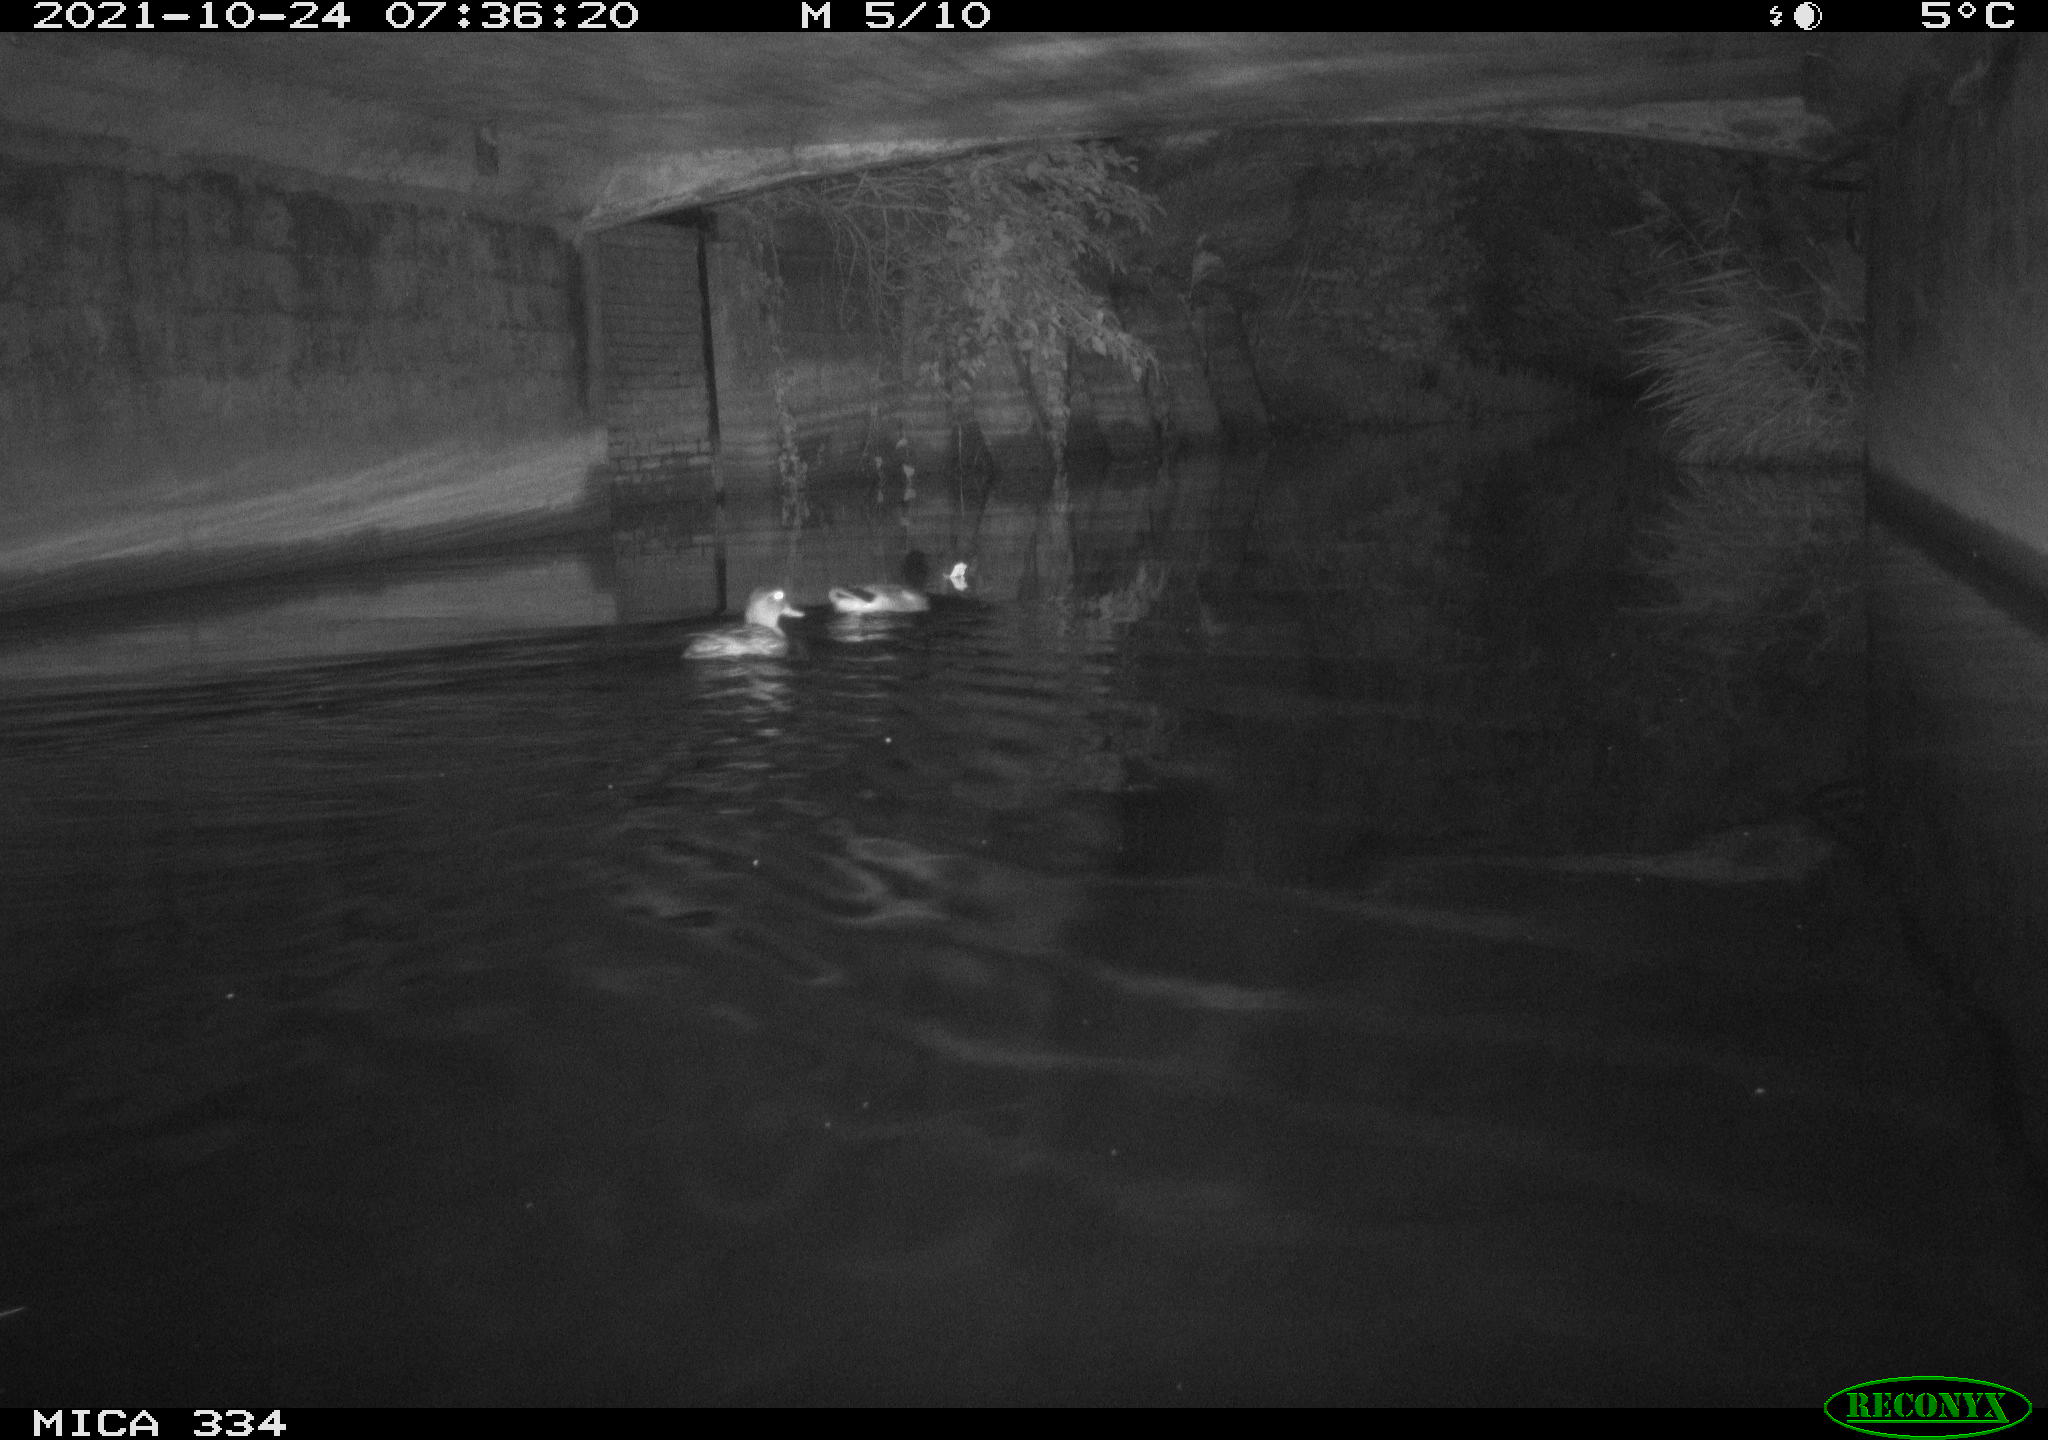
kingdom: Animalia
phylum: Chordata
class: Aves
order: Anseriformes
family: Anatidae
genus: Anas
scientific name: Anas platyrhynchos
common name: Mallard
